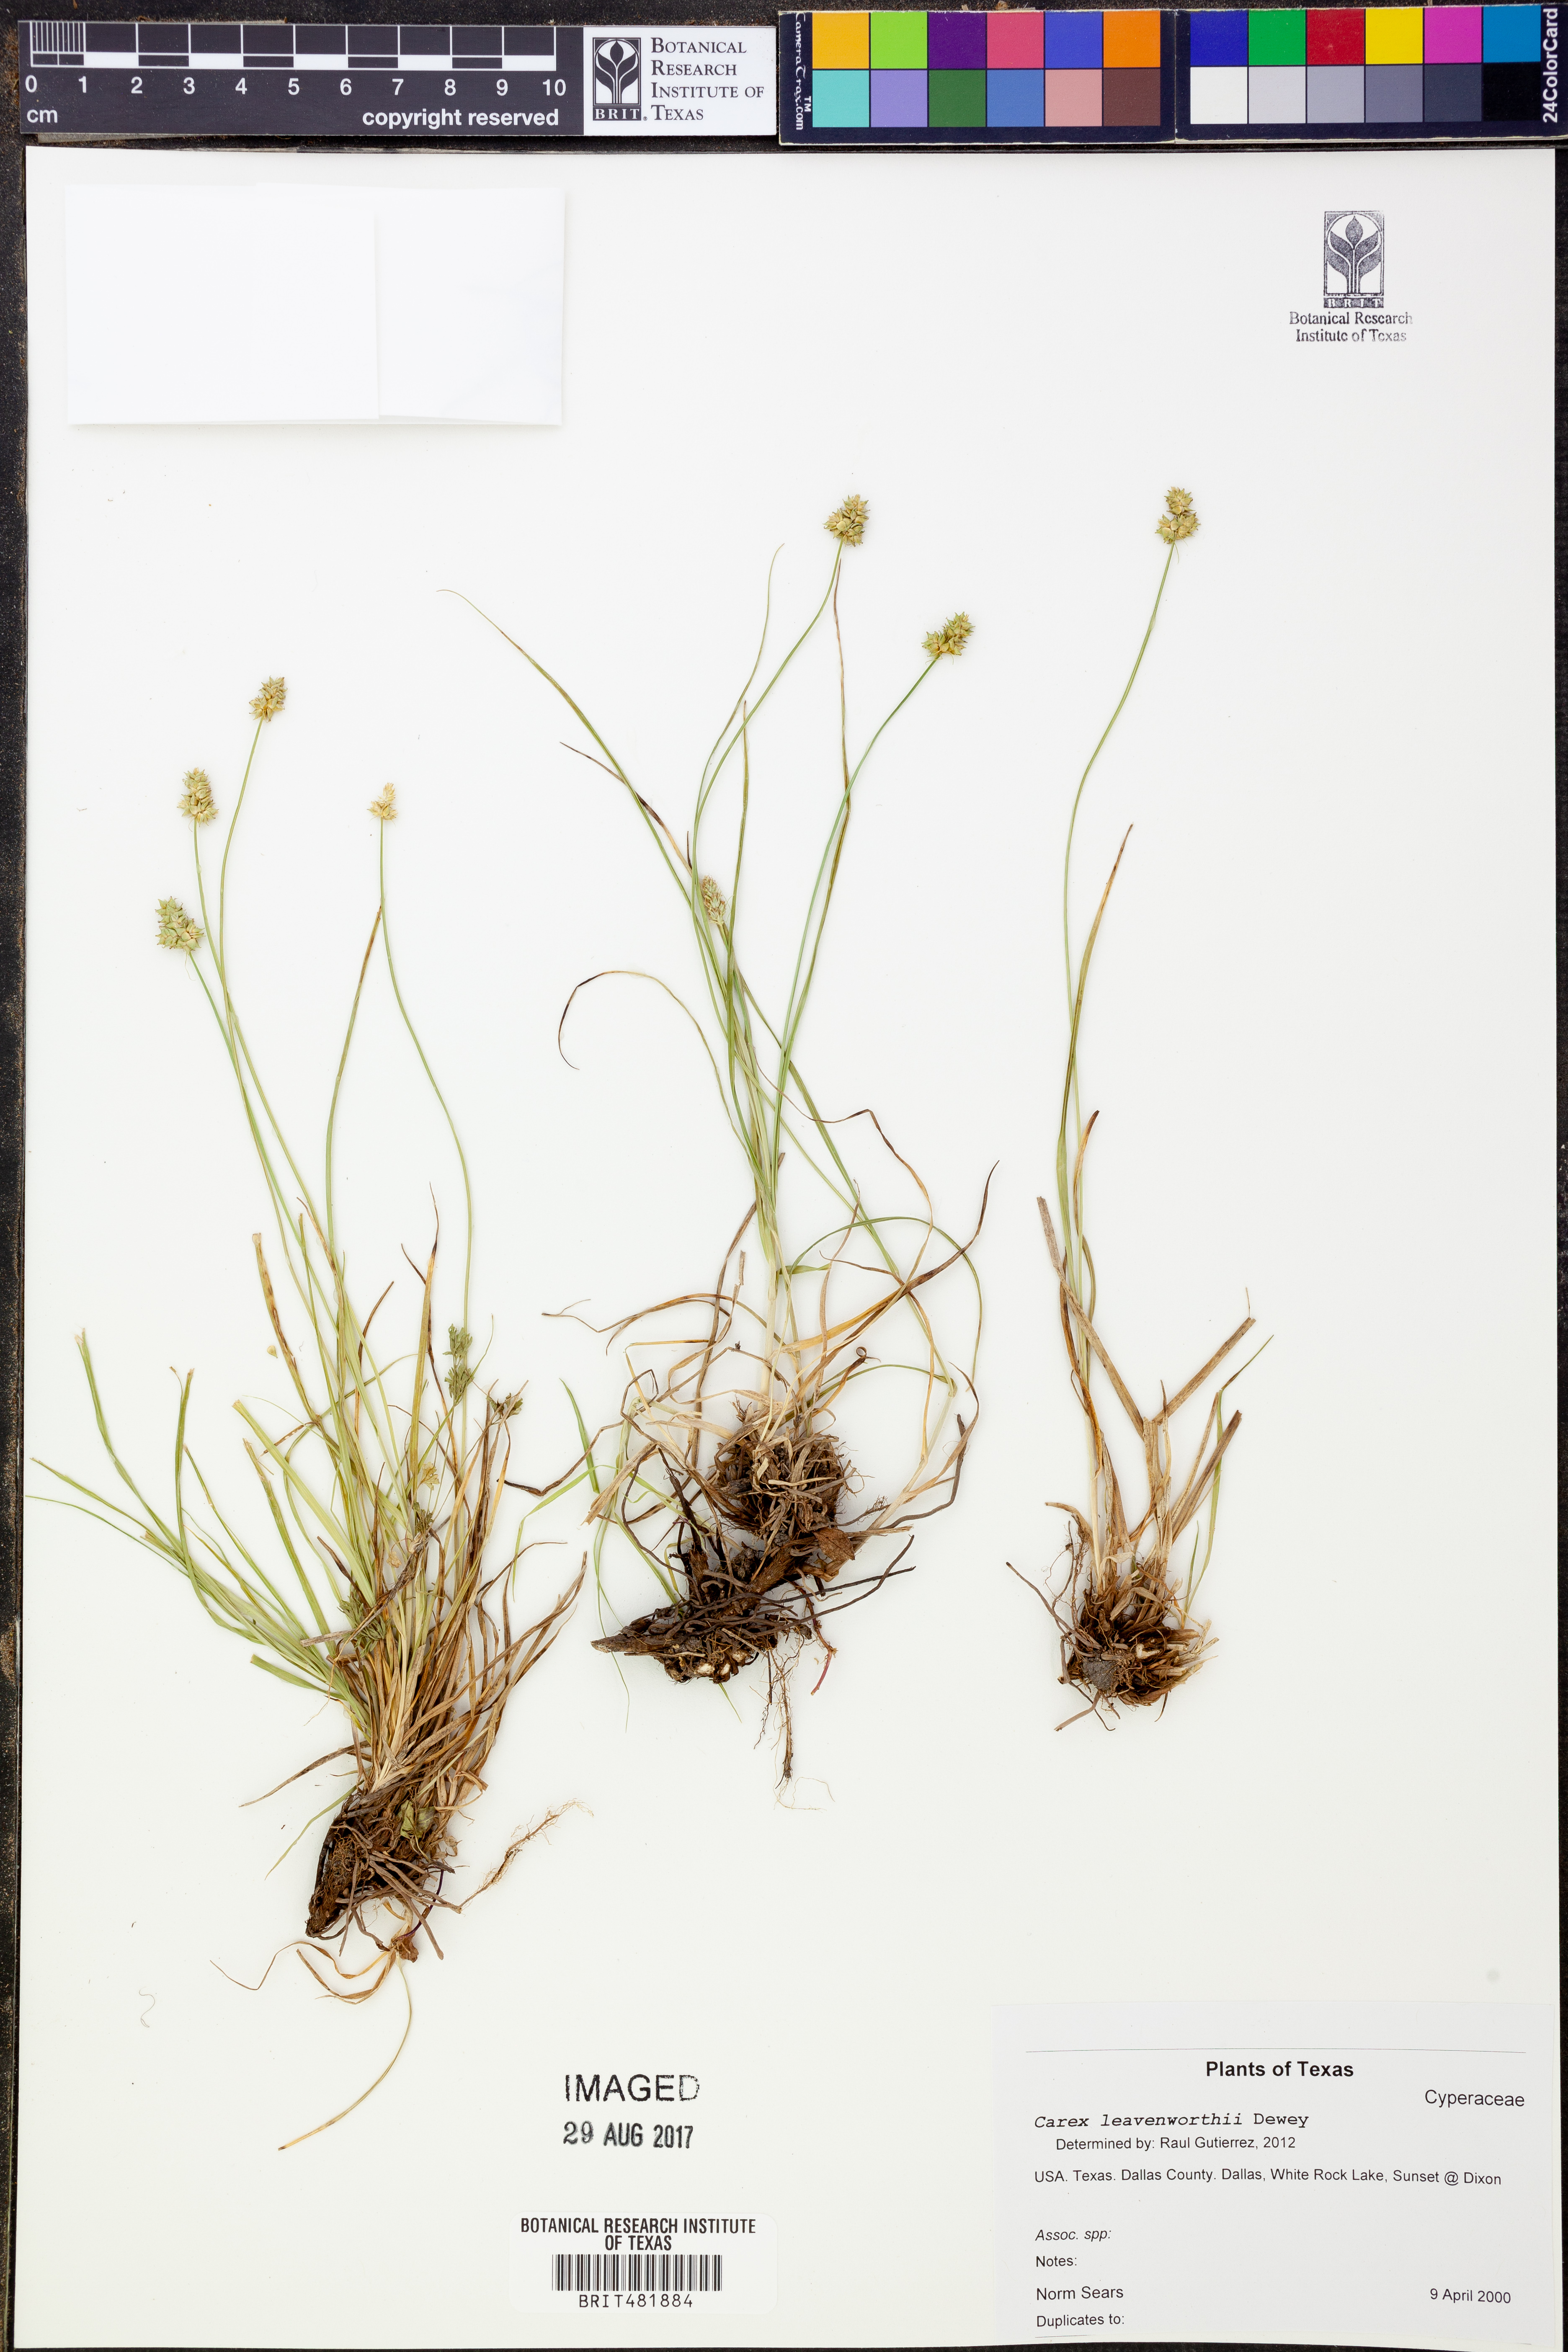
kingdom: Plantae
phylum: Tracheophyta
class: Liliopsida
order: Poales
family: Cyperaceae
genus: Carex
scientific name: Carex leavenworthii
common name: Leavenworth's bracted sedge
